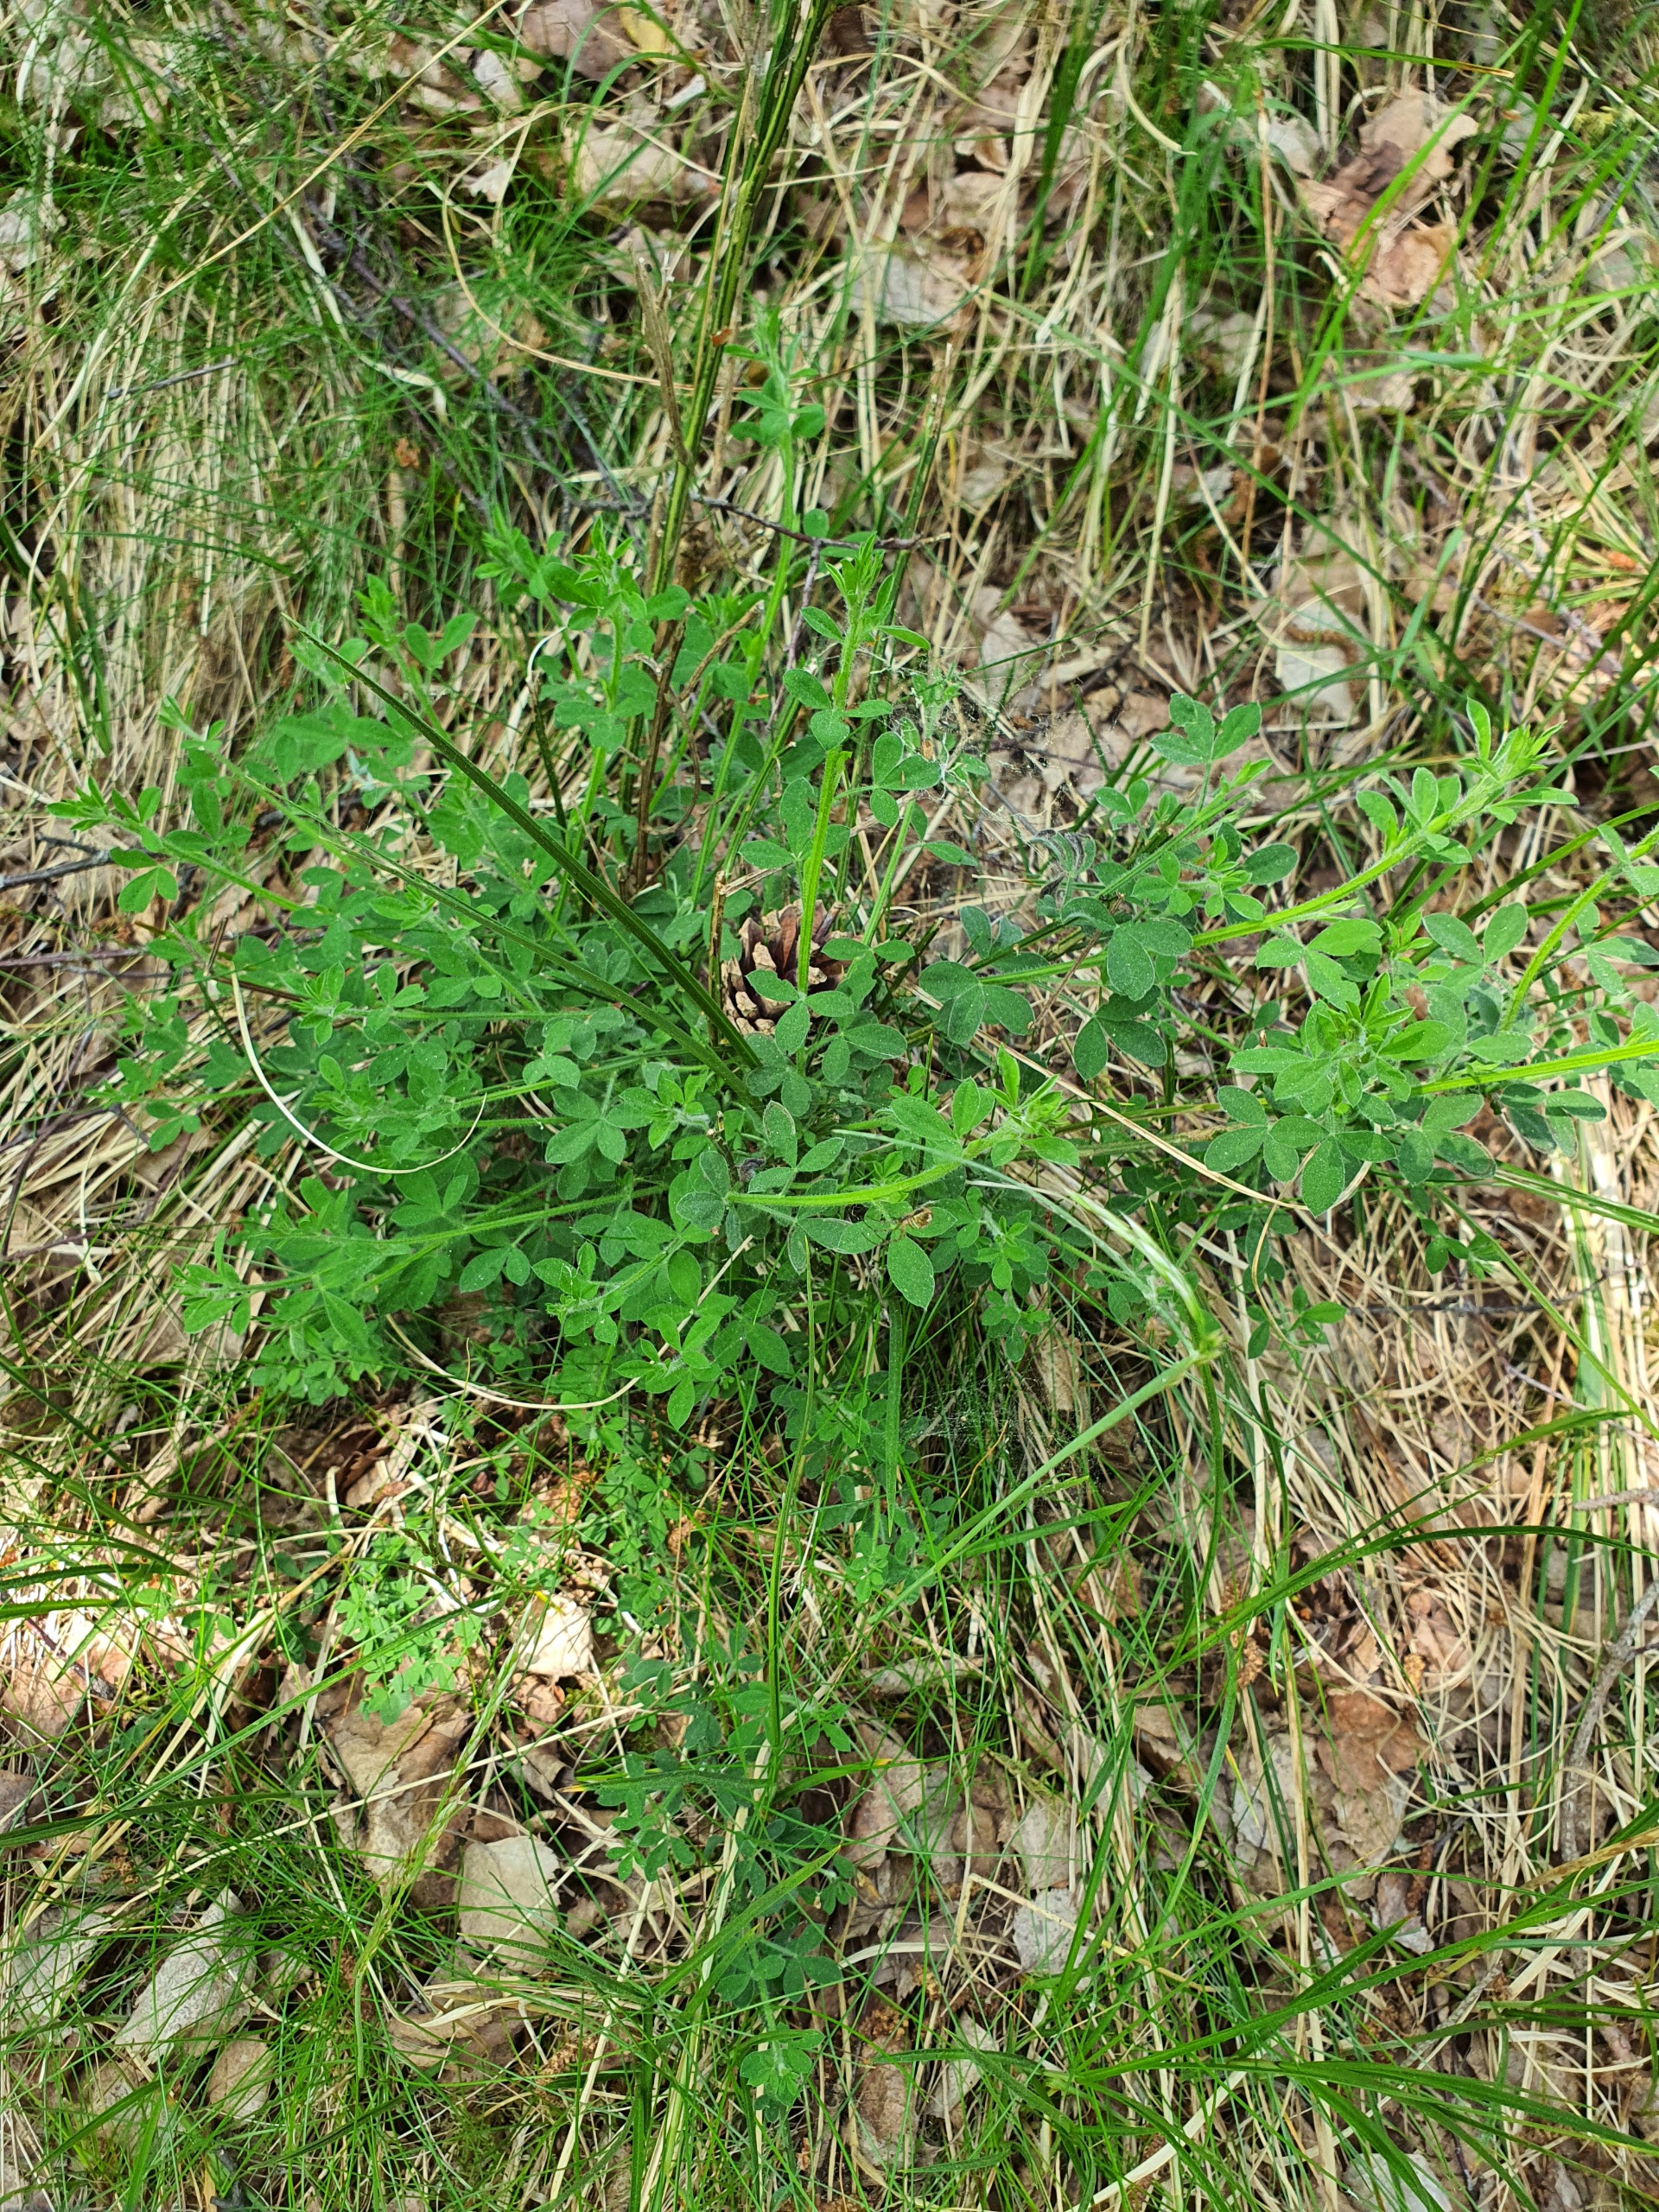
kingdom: Plantae
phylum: Tracheophyta
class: Magnoliopsida
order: Fabales
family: Fabaceae
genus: Cytisus
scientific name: Cytisus scoparius
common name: Almindelig gyvel
